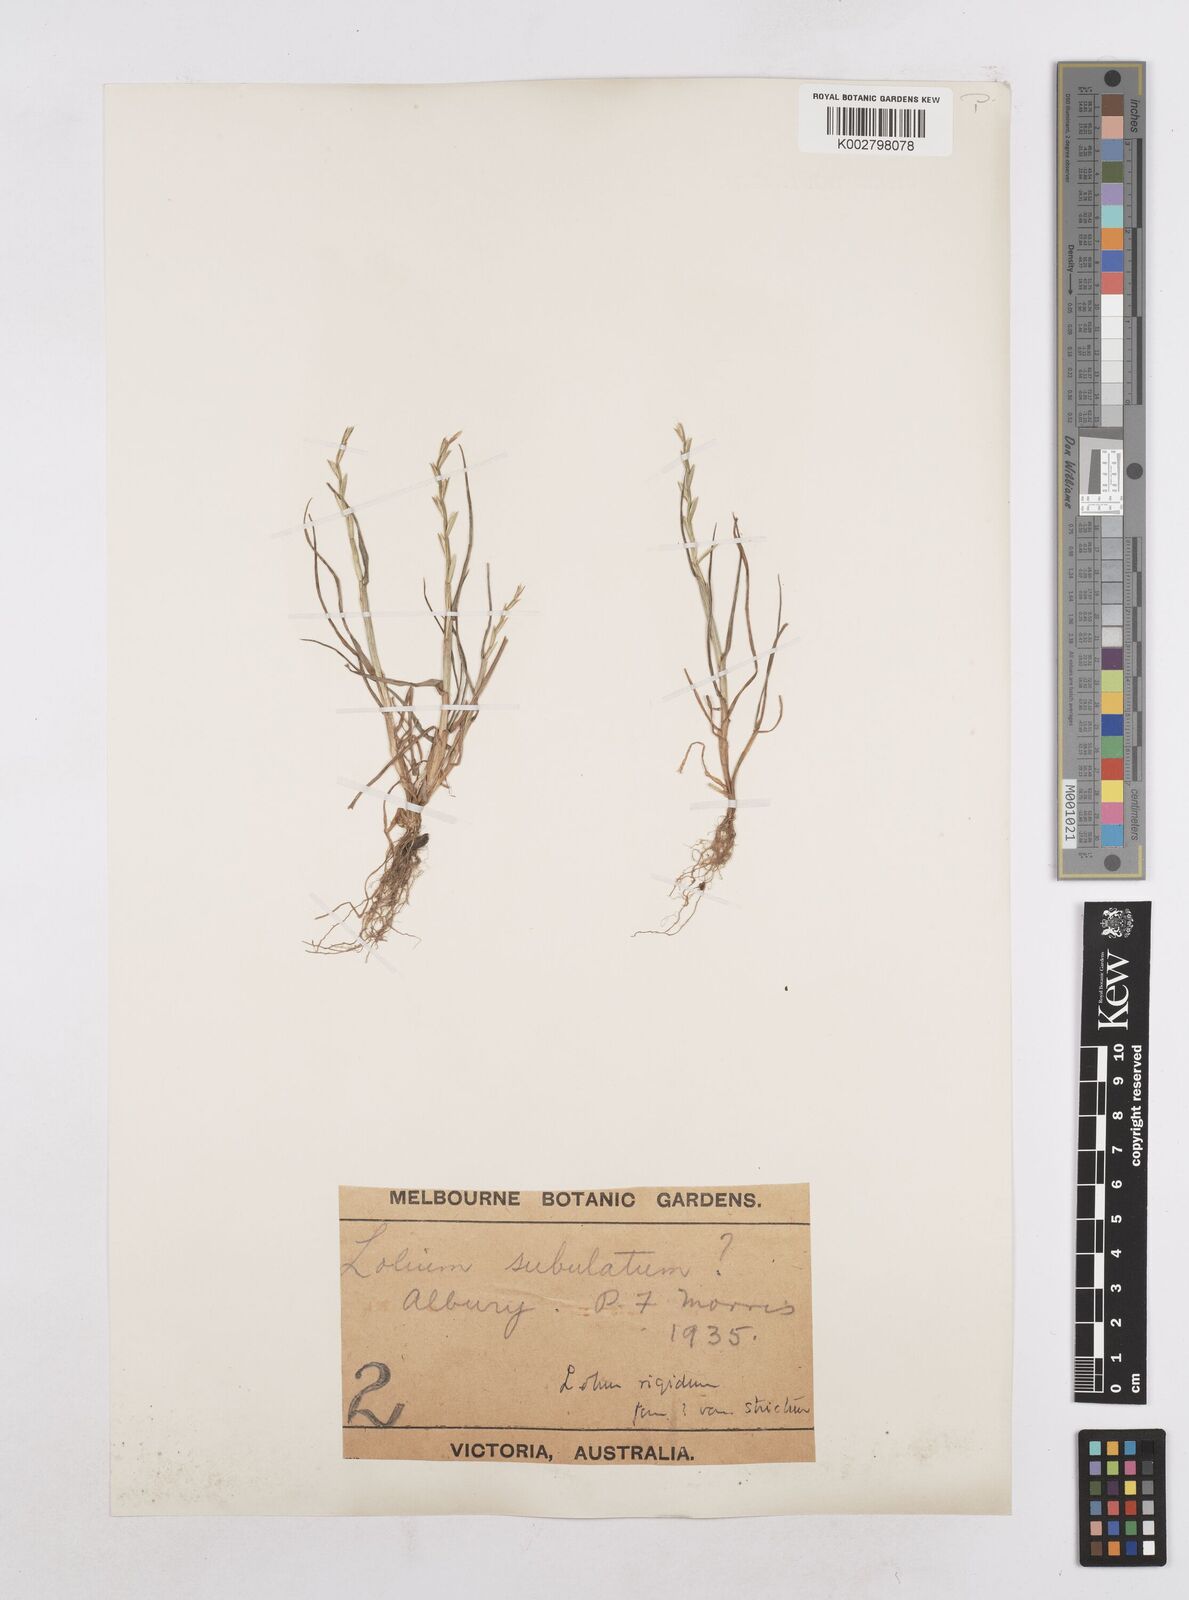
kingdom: Plantae
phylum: Tracheophyta
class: Liliopsida
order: Poales
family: Poaceae
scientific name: Poaceae
